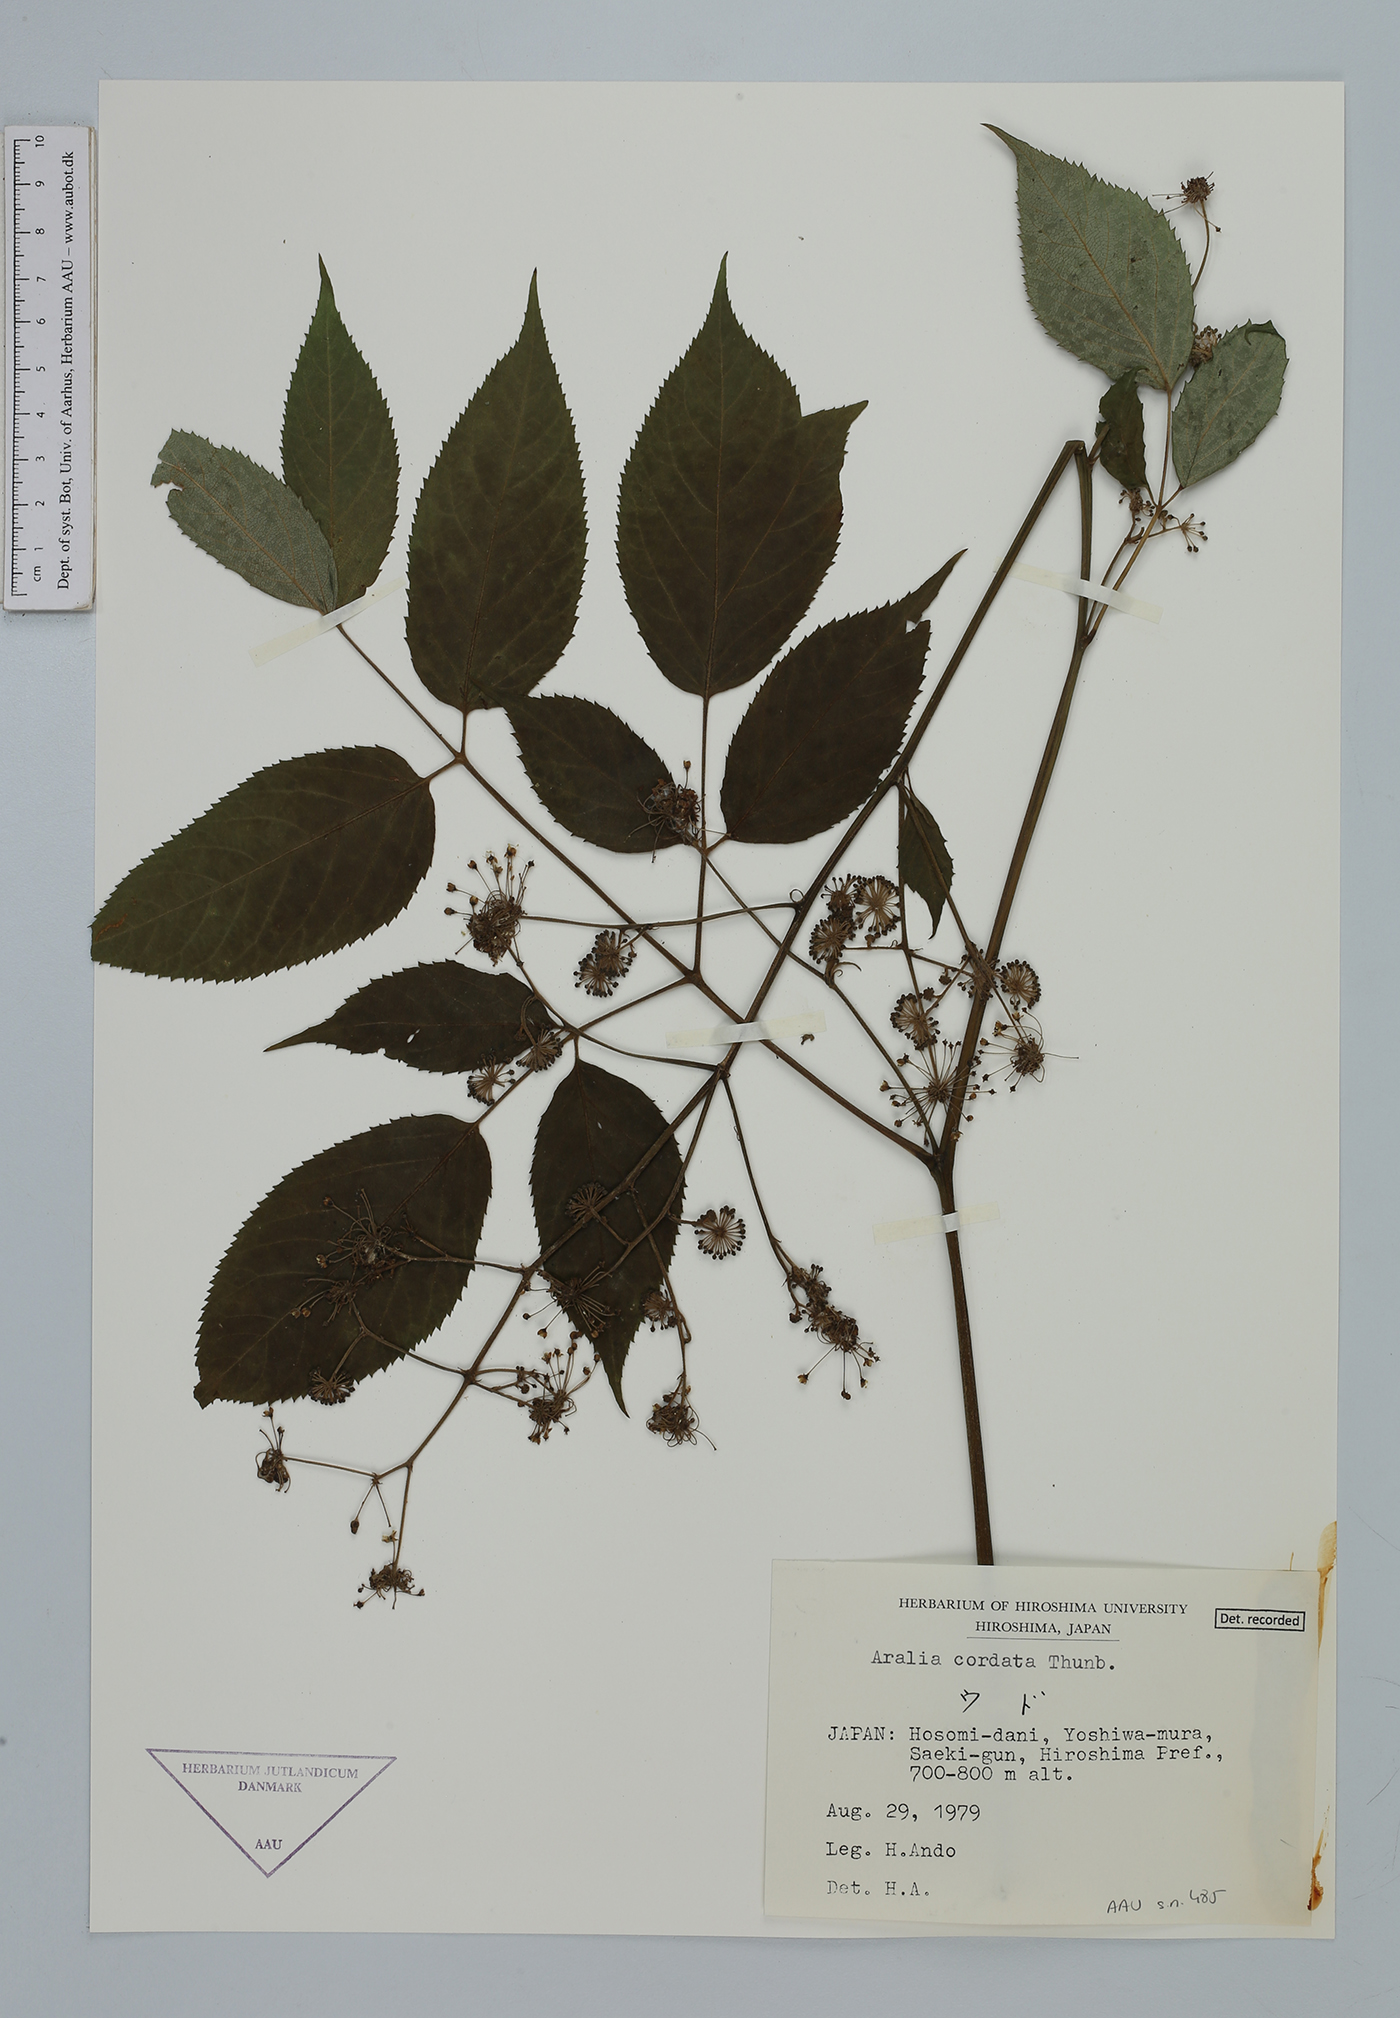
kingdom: Plantae
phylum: Tracheophyta
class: Magnoliopsida
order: Apiales
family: Araliaceae
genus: Aralia
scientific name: Aralia cordata
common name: Udo
